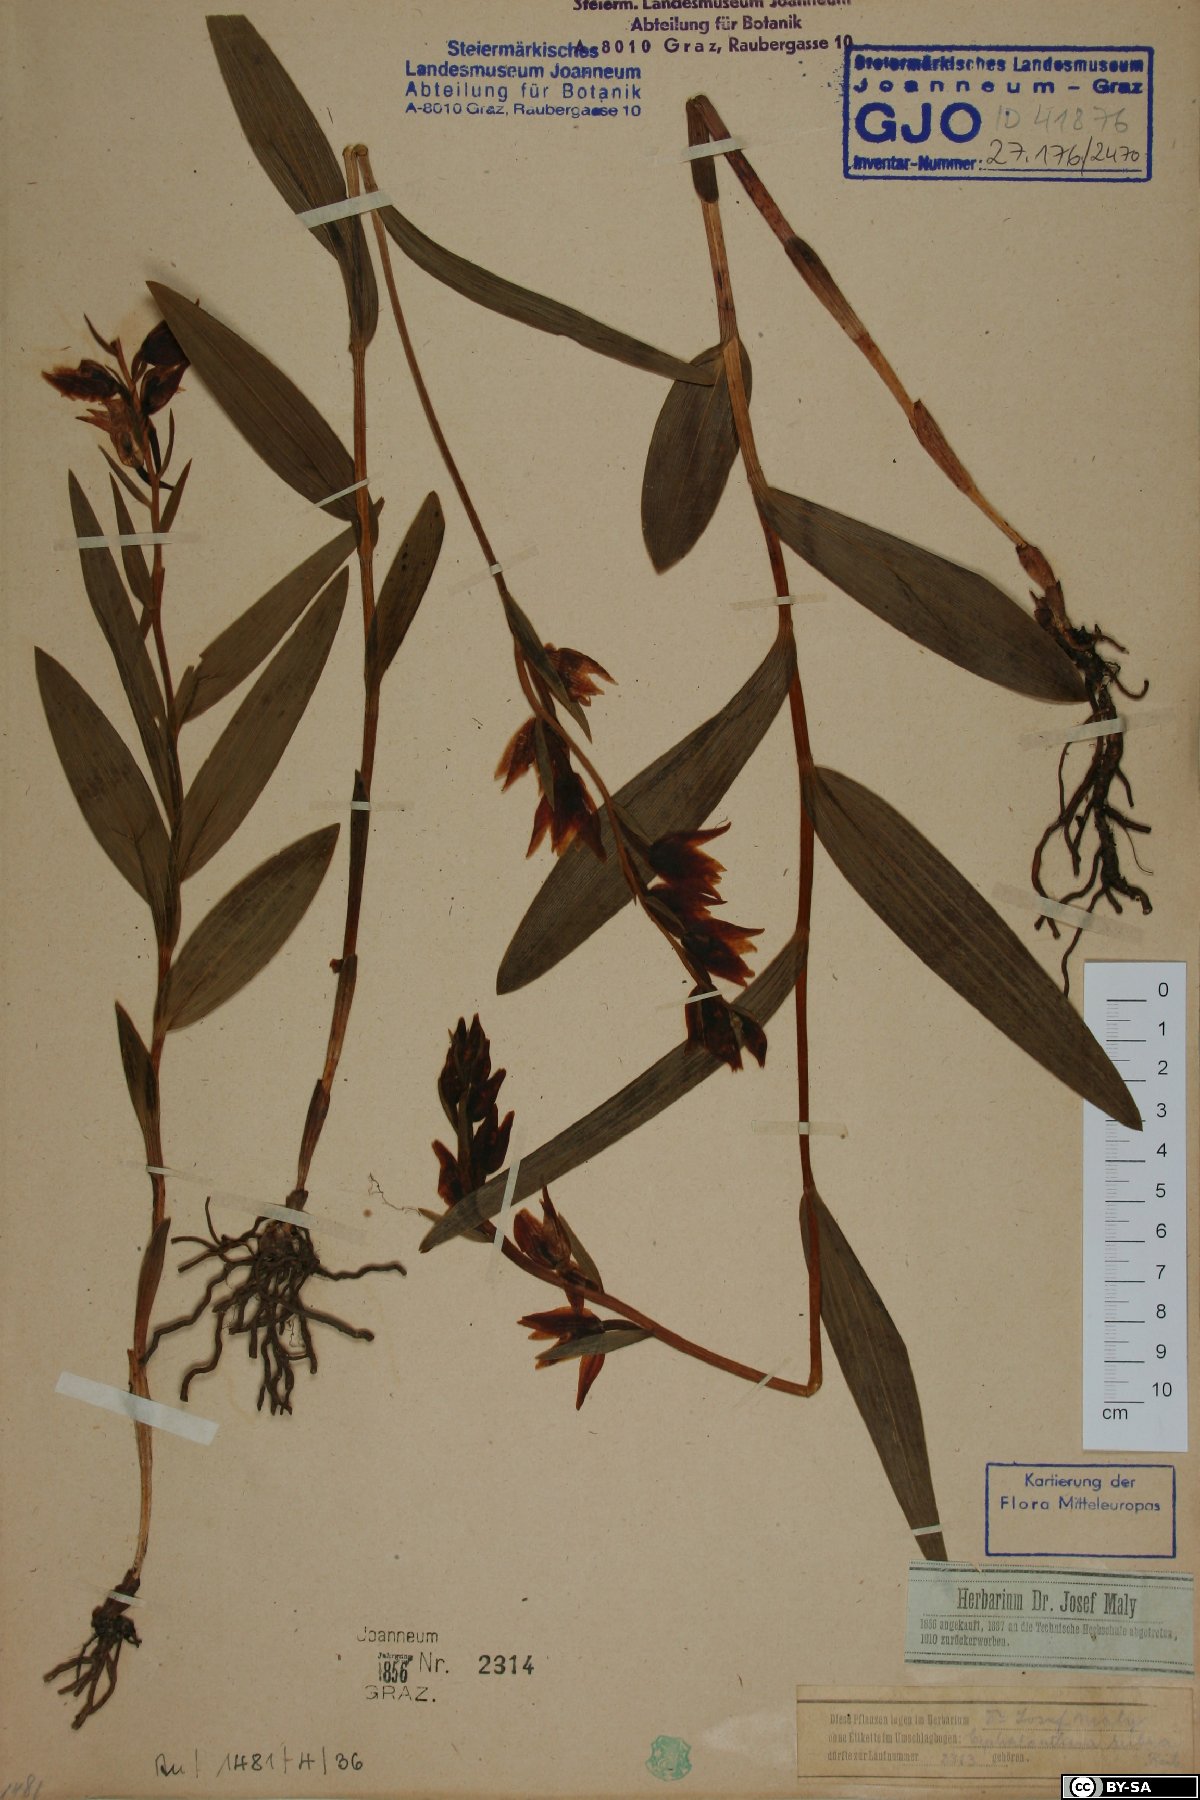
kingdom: Plantae
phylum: Tracheophyta
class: Liliopsida
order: Asparagales
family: Orchidaceae
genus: Cephalanthera
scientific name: Cephalanthera rubra
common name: Red helleborine
